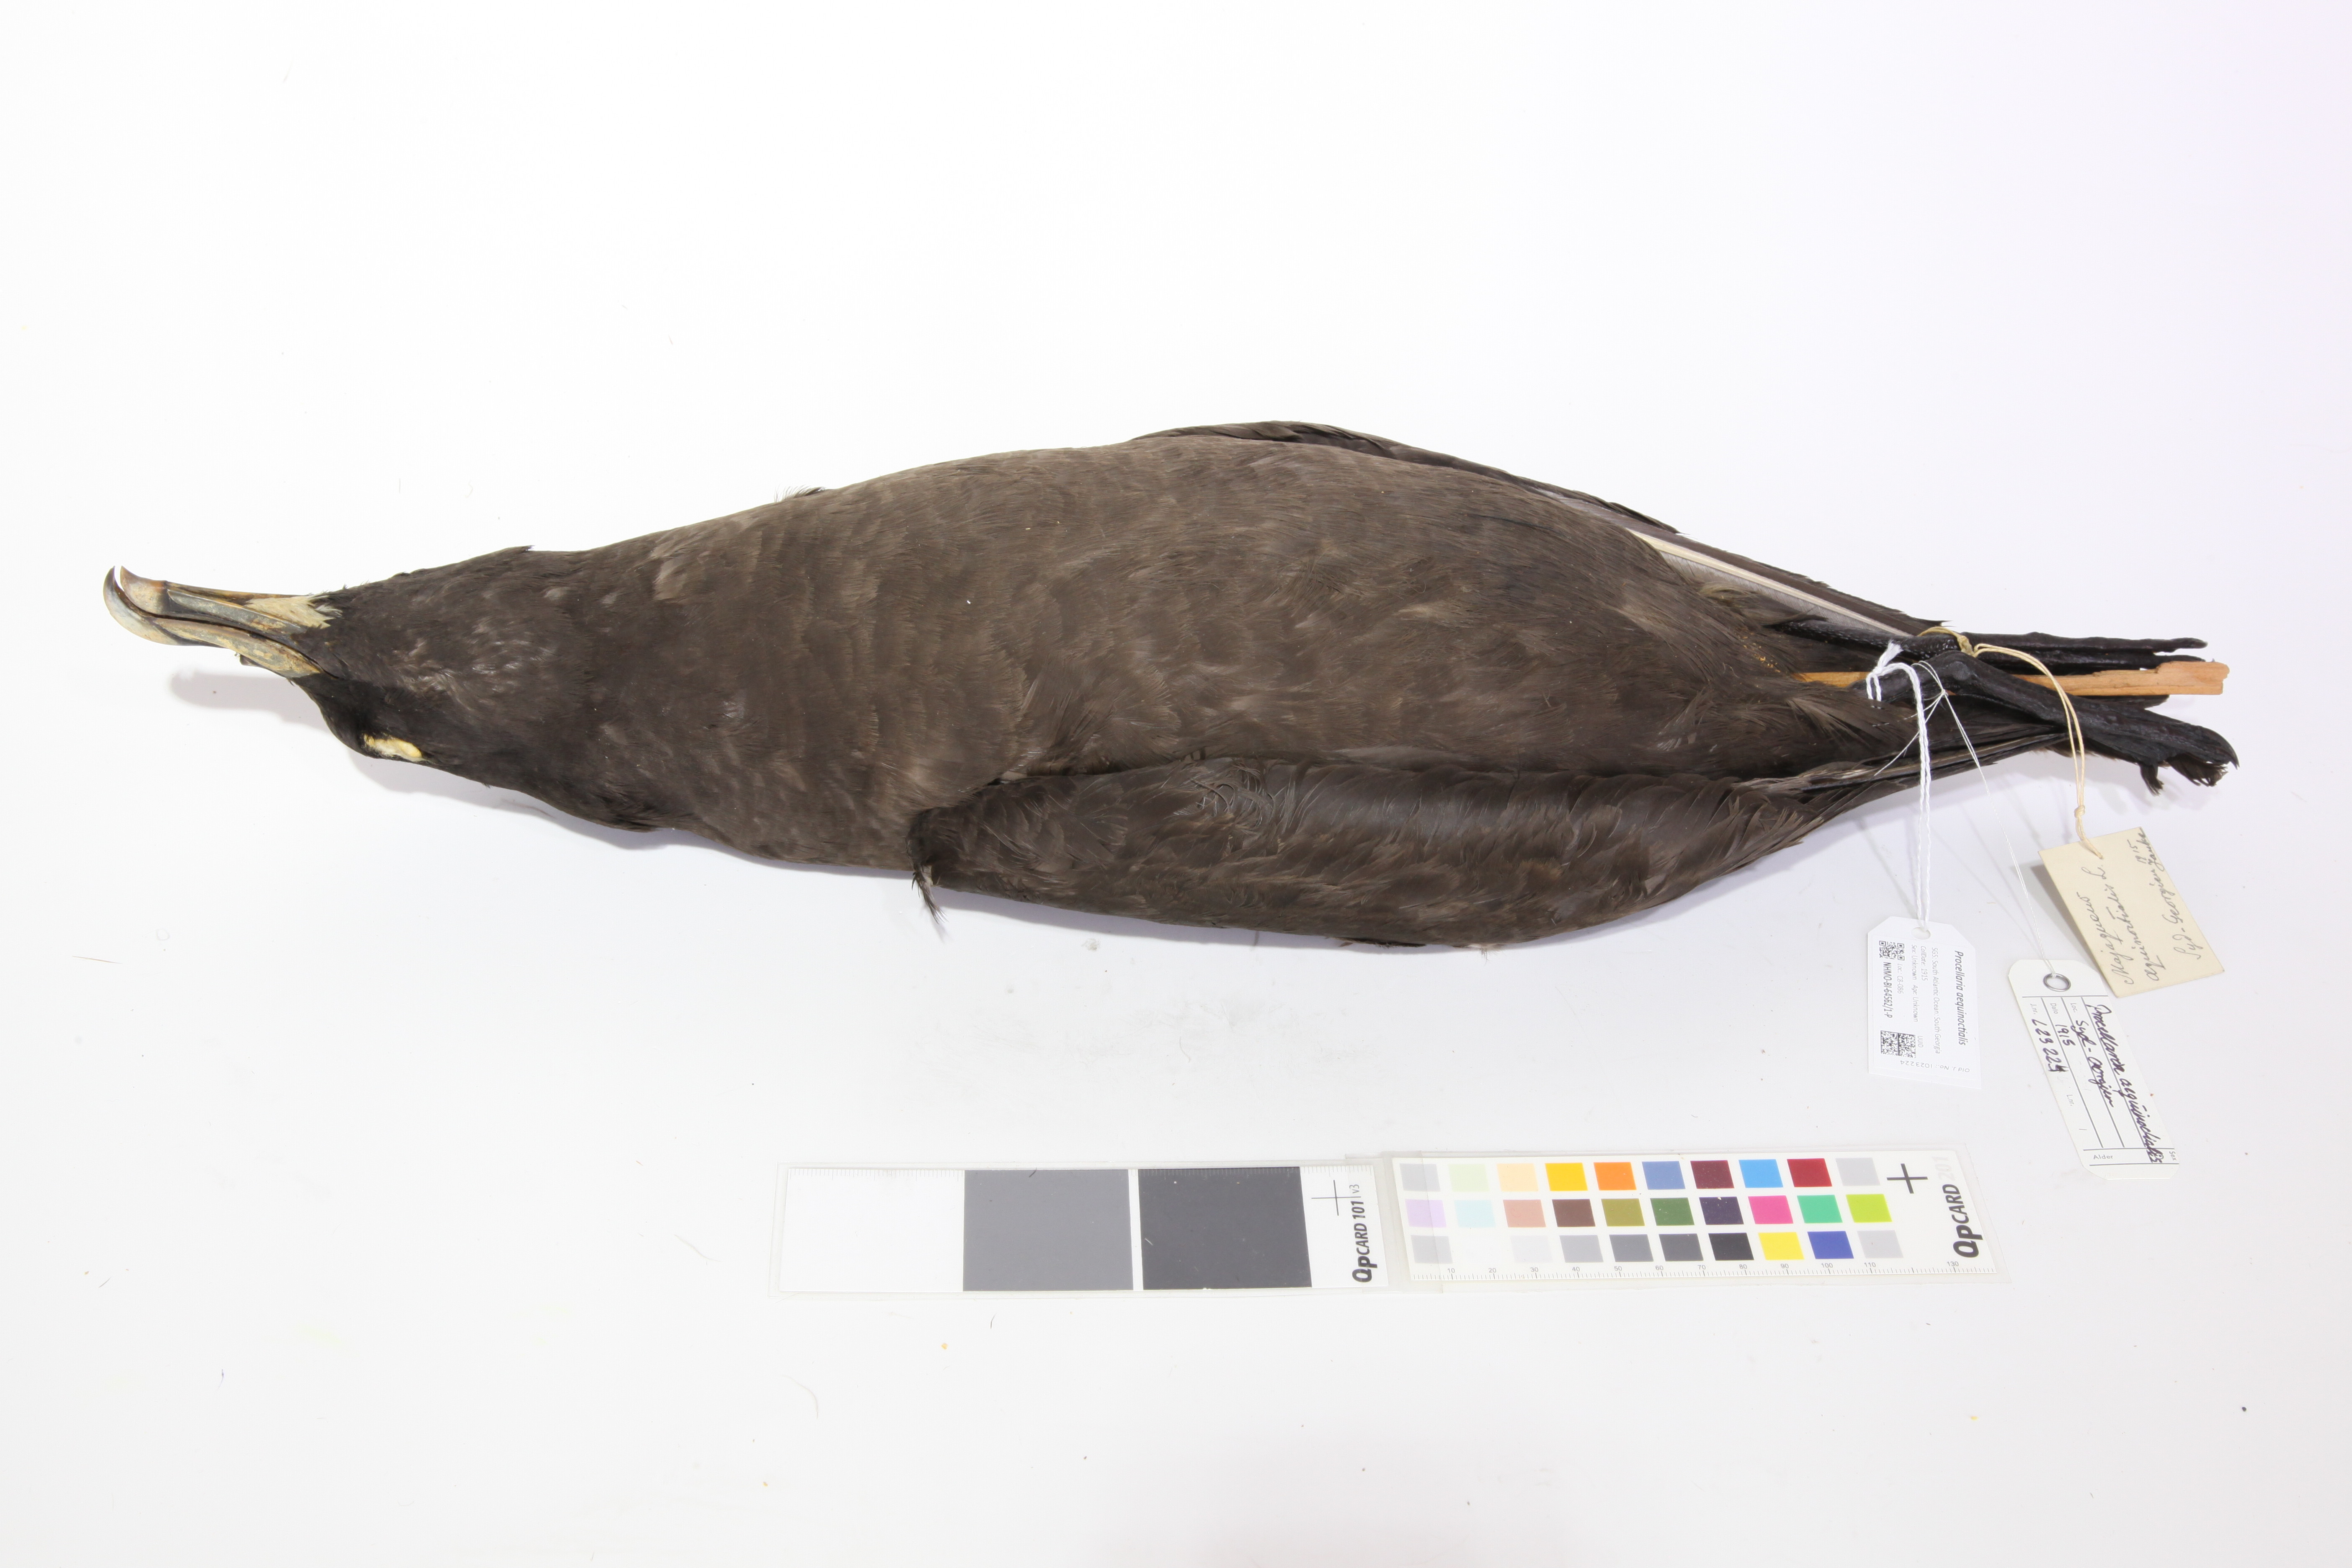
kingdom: Animalia
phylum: Chordata
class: Aves
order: Procellariiformes
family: Procellariidae
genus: Procellaria
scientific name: Procellaria aequinoctialis
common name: White-chinned petrel
